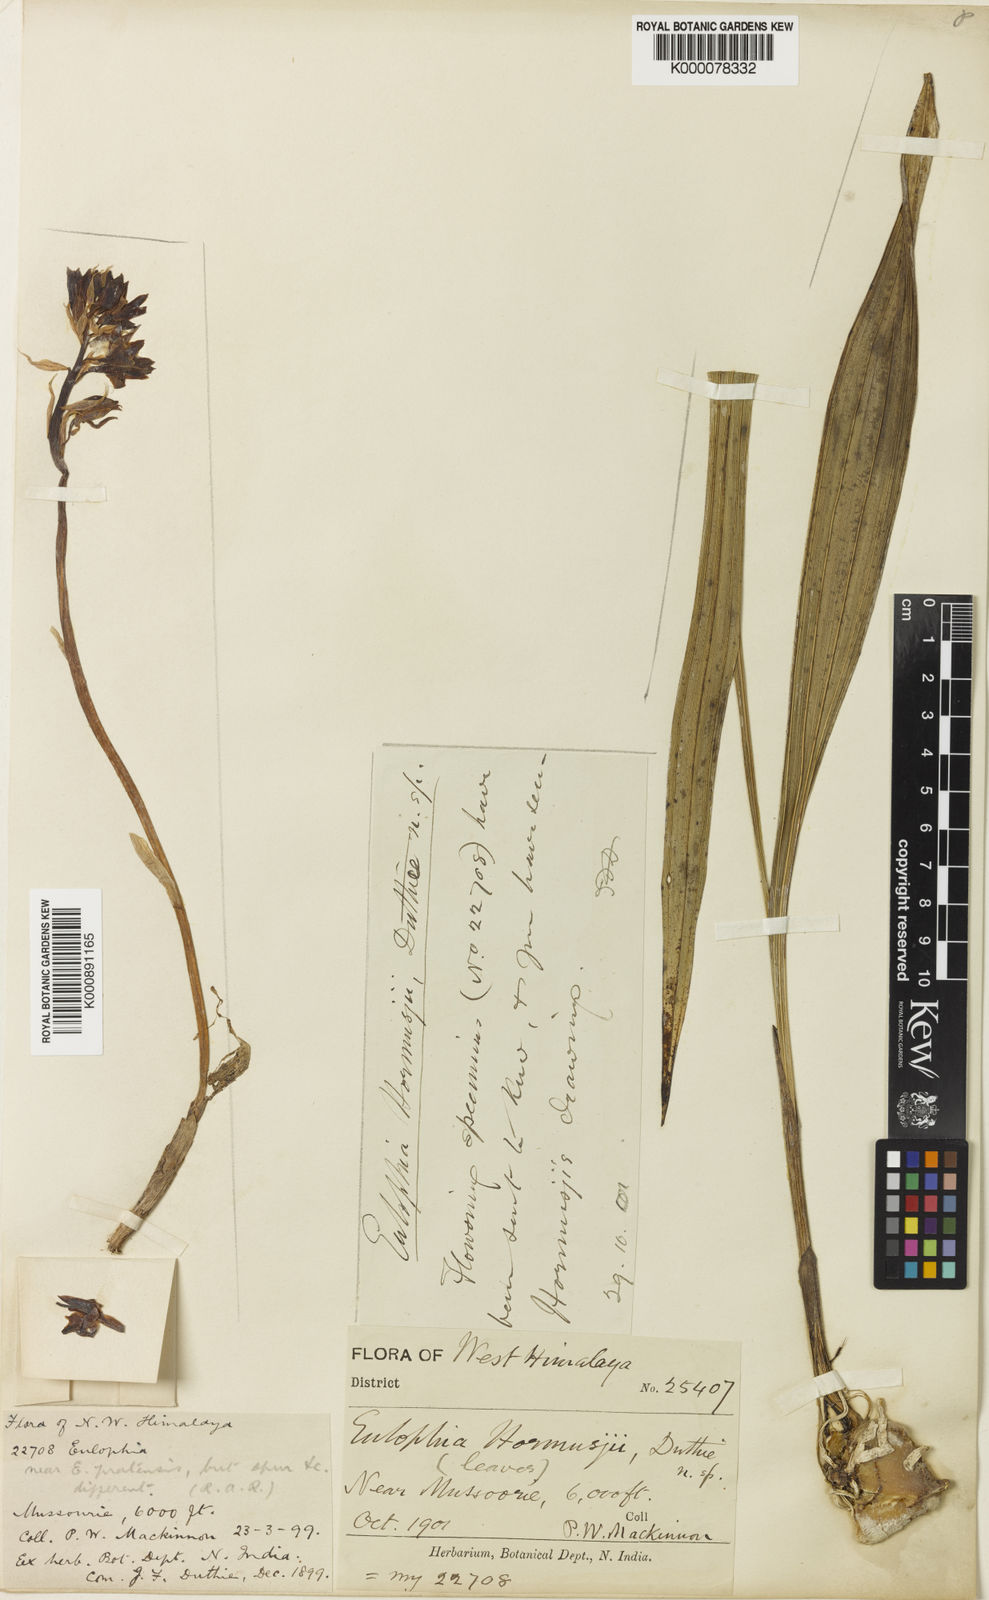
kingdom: Plantae
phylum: Tracheophyta
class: Liliopsida
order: Asparagales
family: Orchidaceae
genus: Eulophia
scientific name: Eulophia dabia
